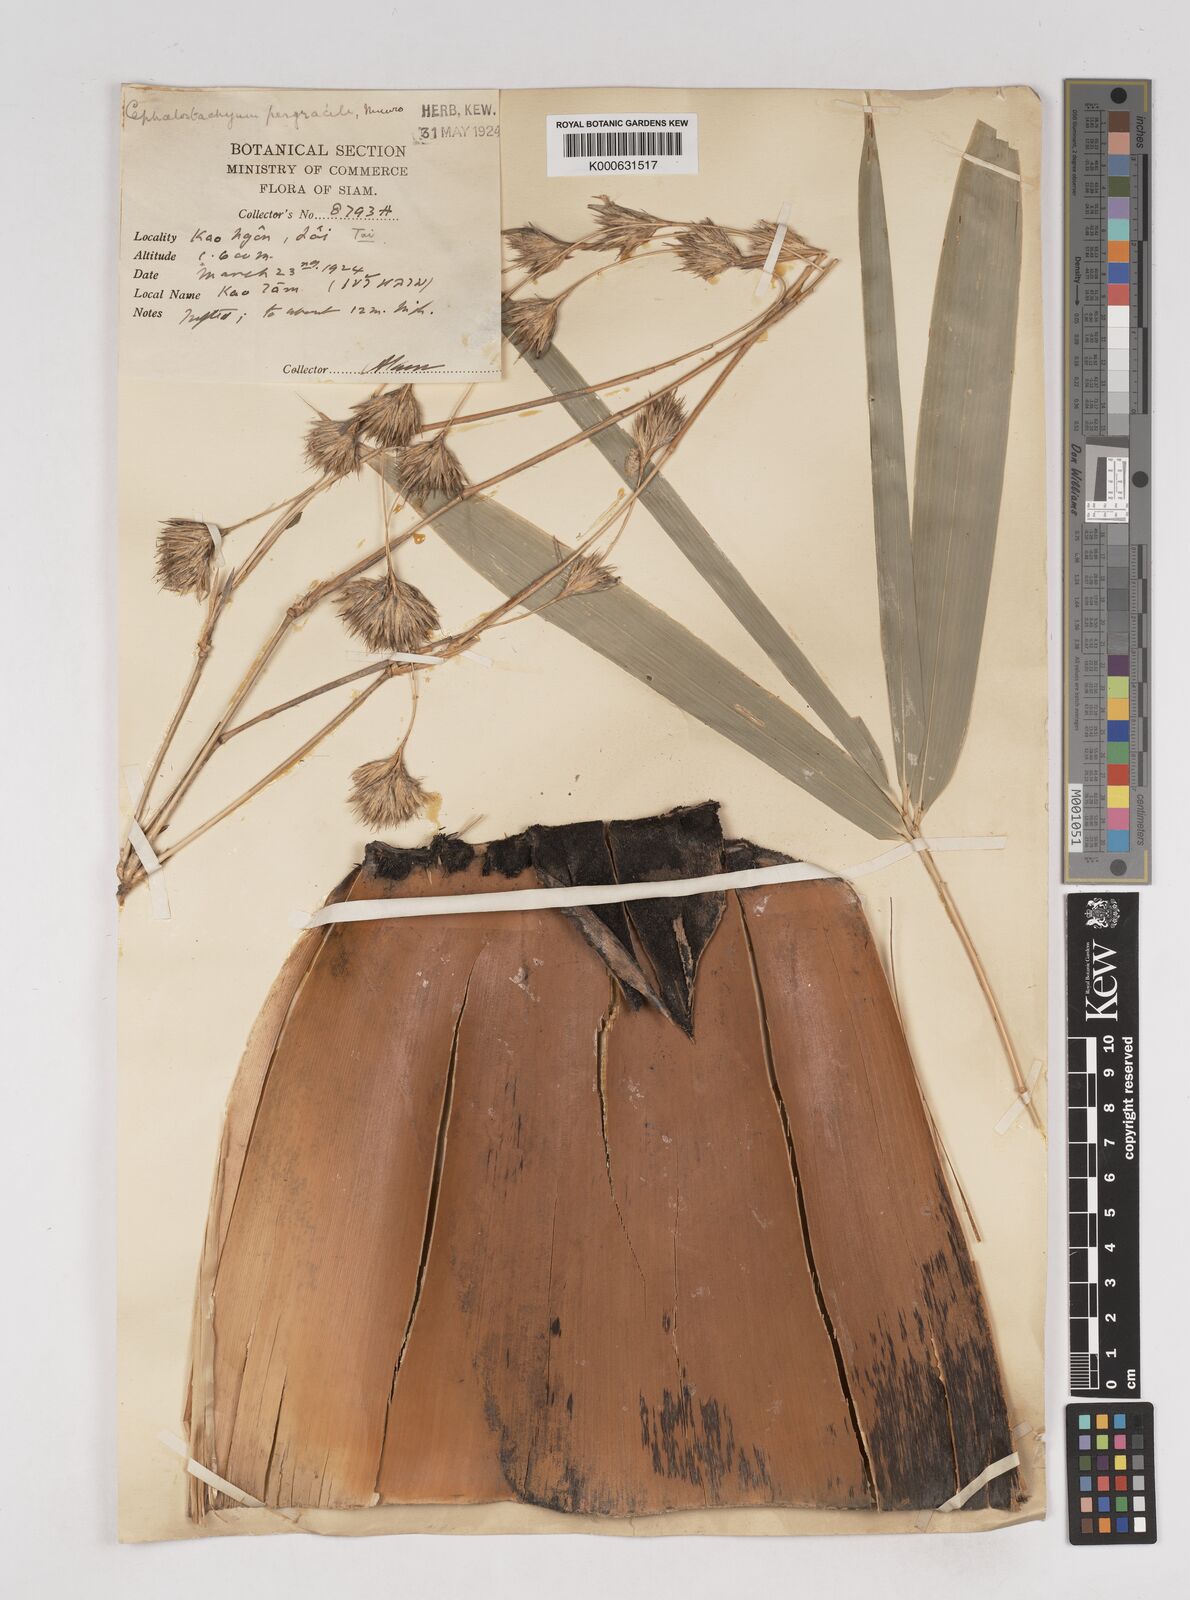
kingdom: Plantae
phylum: Tracheophyta
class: Liliopsida
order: Poales
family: Poaceae
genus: Schizostachyum
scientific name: Schizostachyum pergracile
